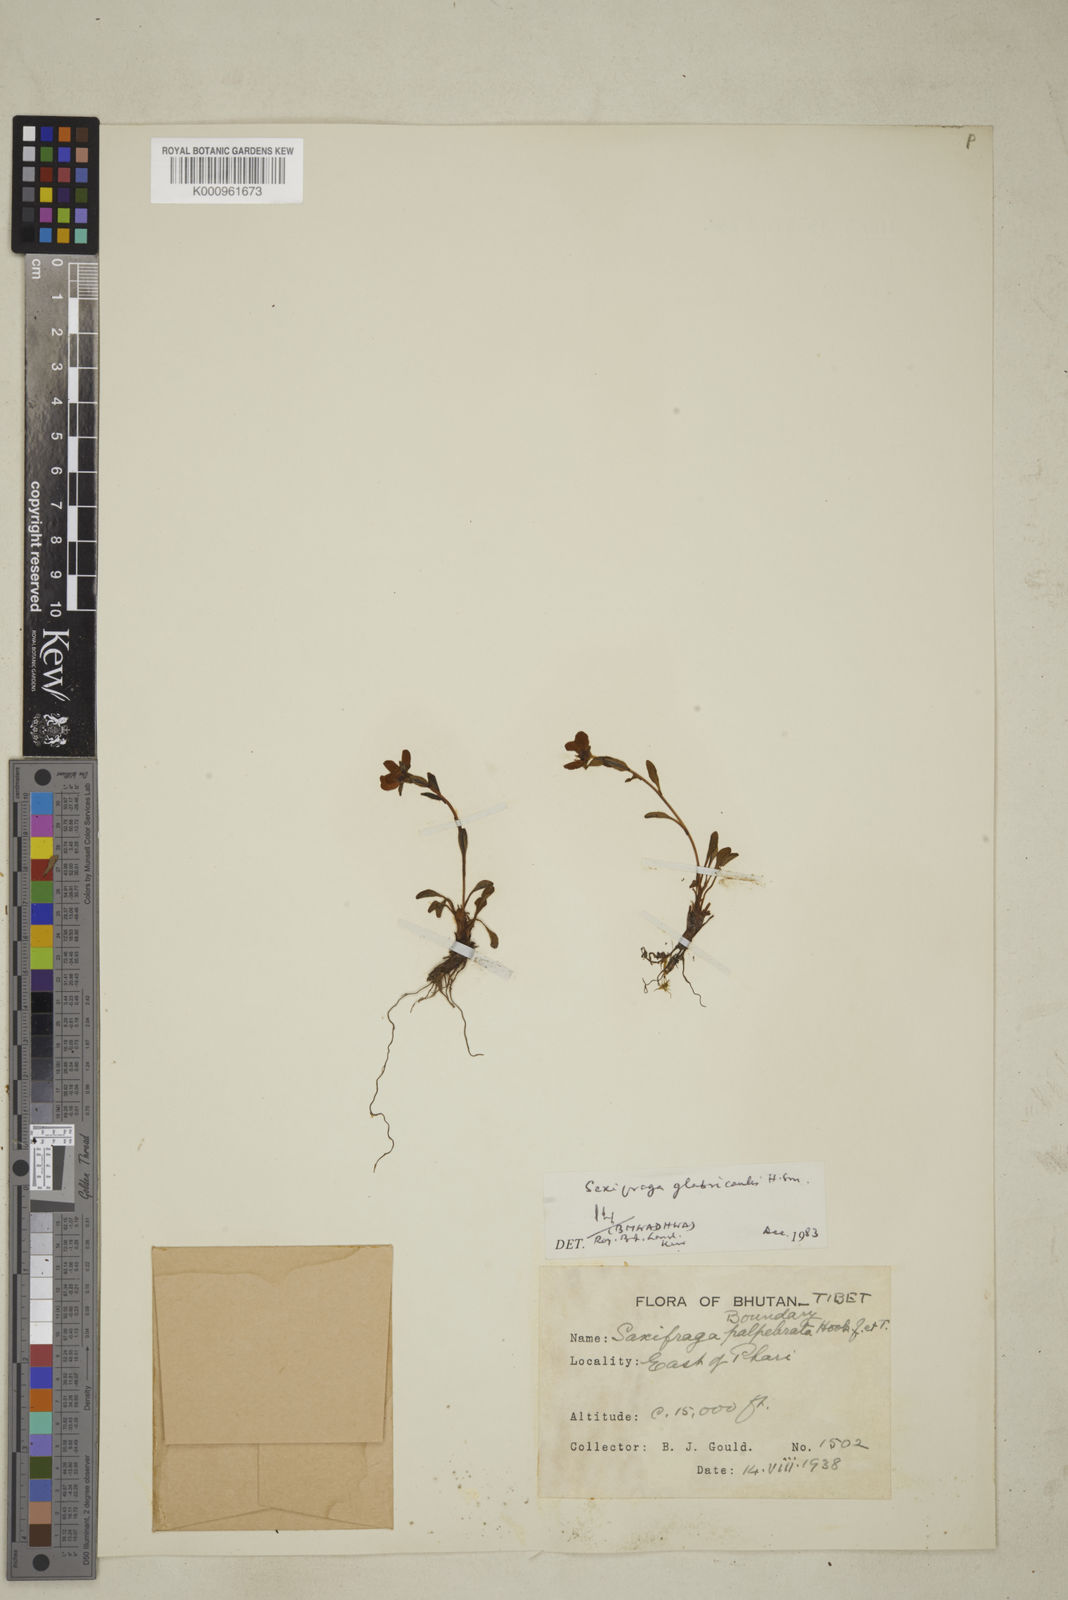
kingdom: Plantae
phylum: Tracheophyta
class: Magnoliopsida
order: Saxifragales
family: Saxifragaceae
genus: Saxifraga
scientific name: Saxifraga glabricaulis
